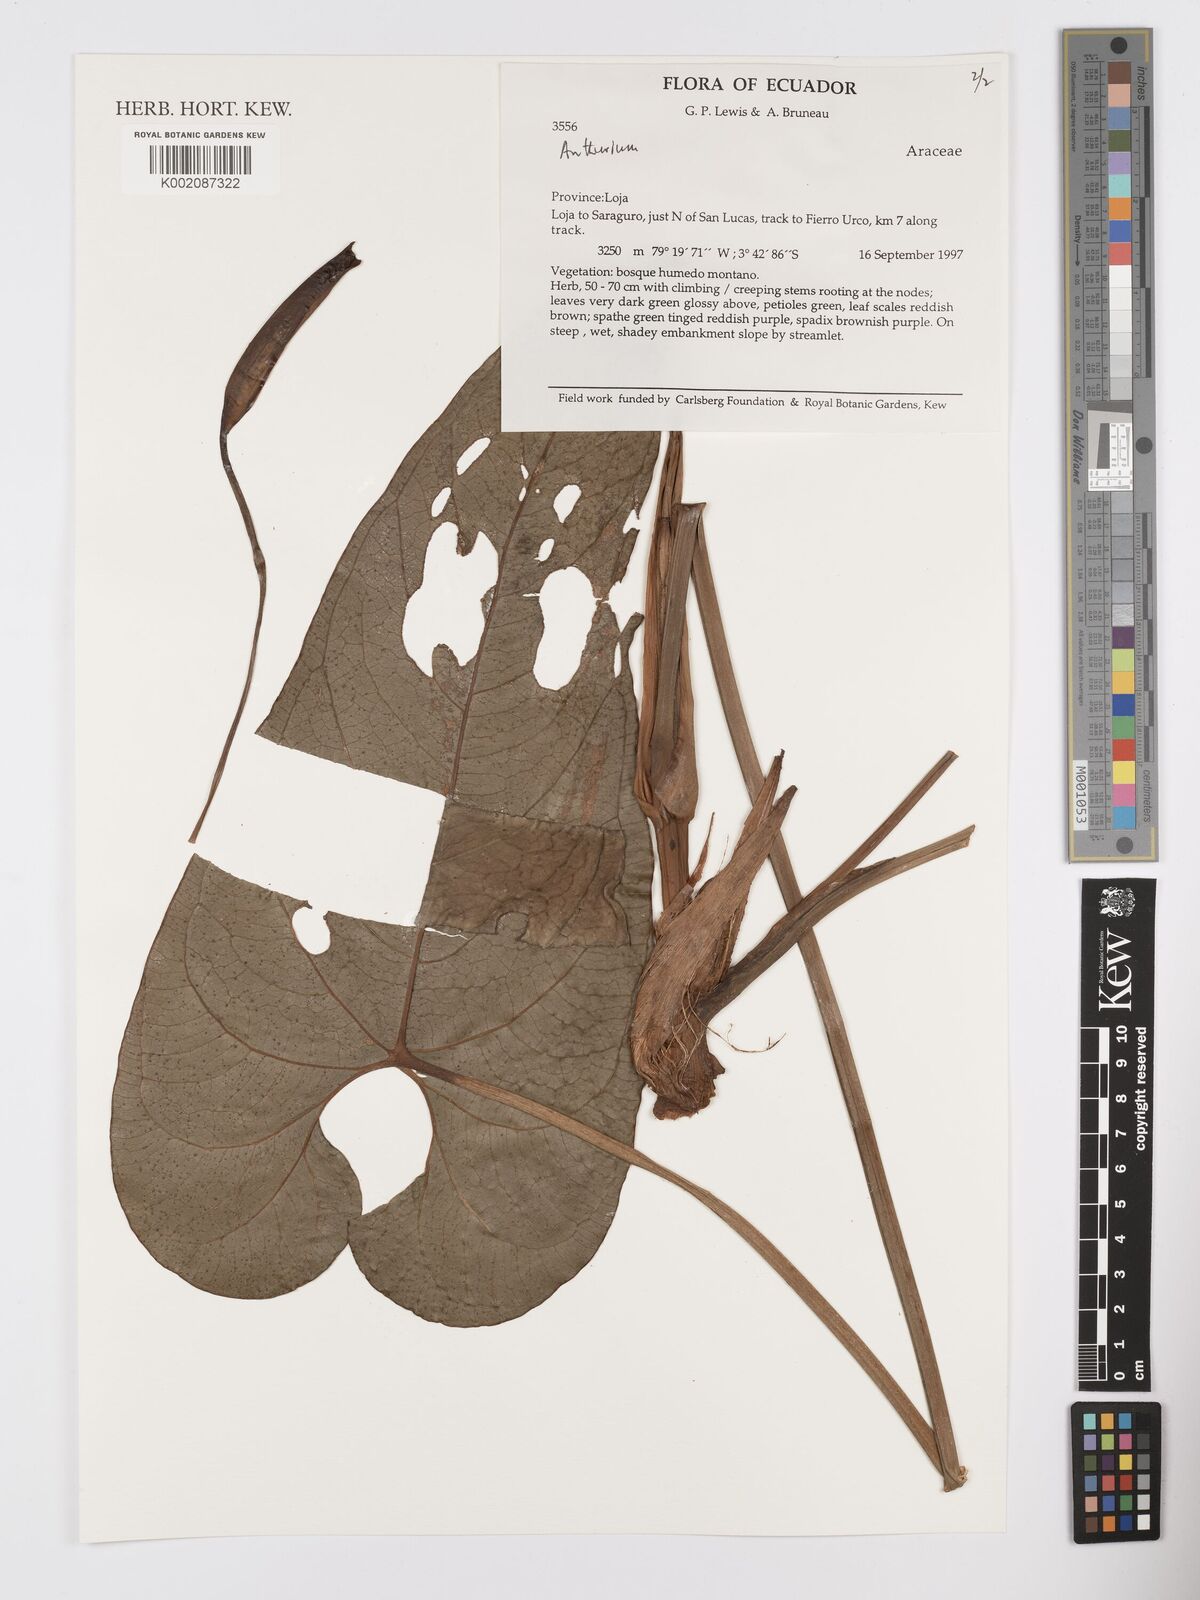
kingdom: Plantae
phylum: Tracheophyta
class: Liliopsida
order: Alismatales
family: Araceae
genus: Anthurium
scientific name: Anthurium
